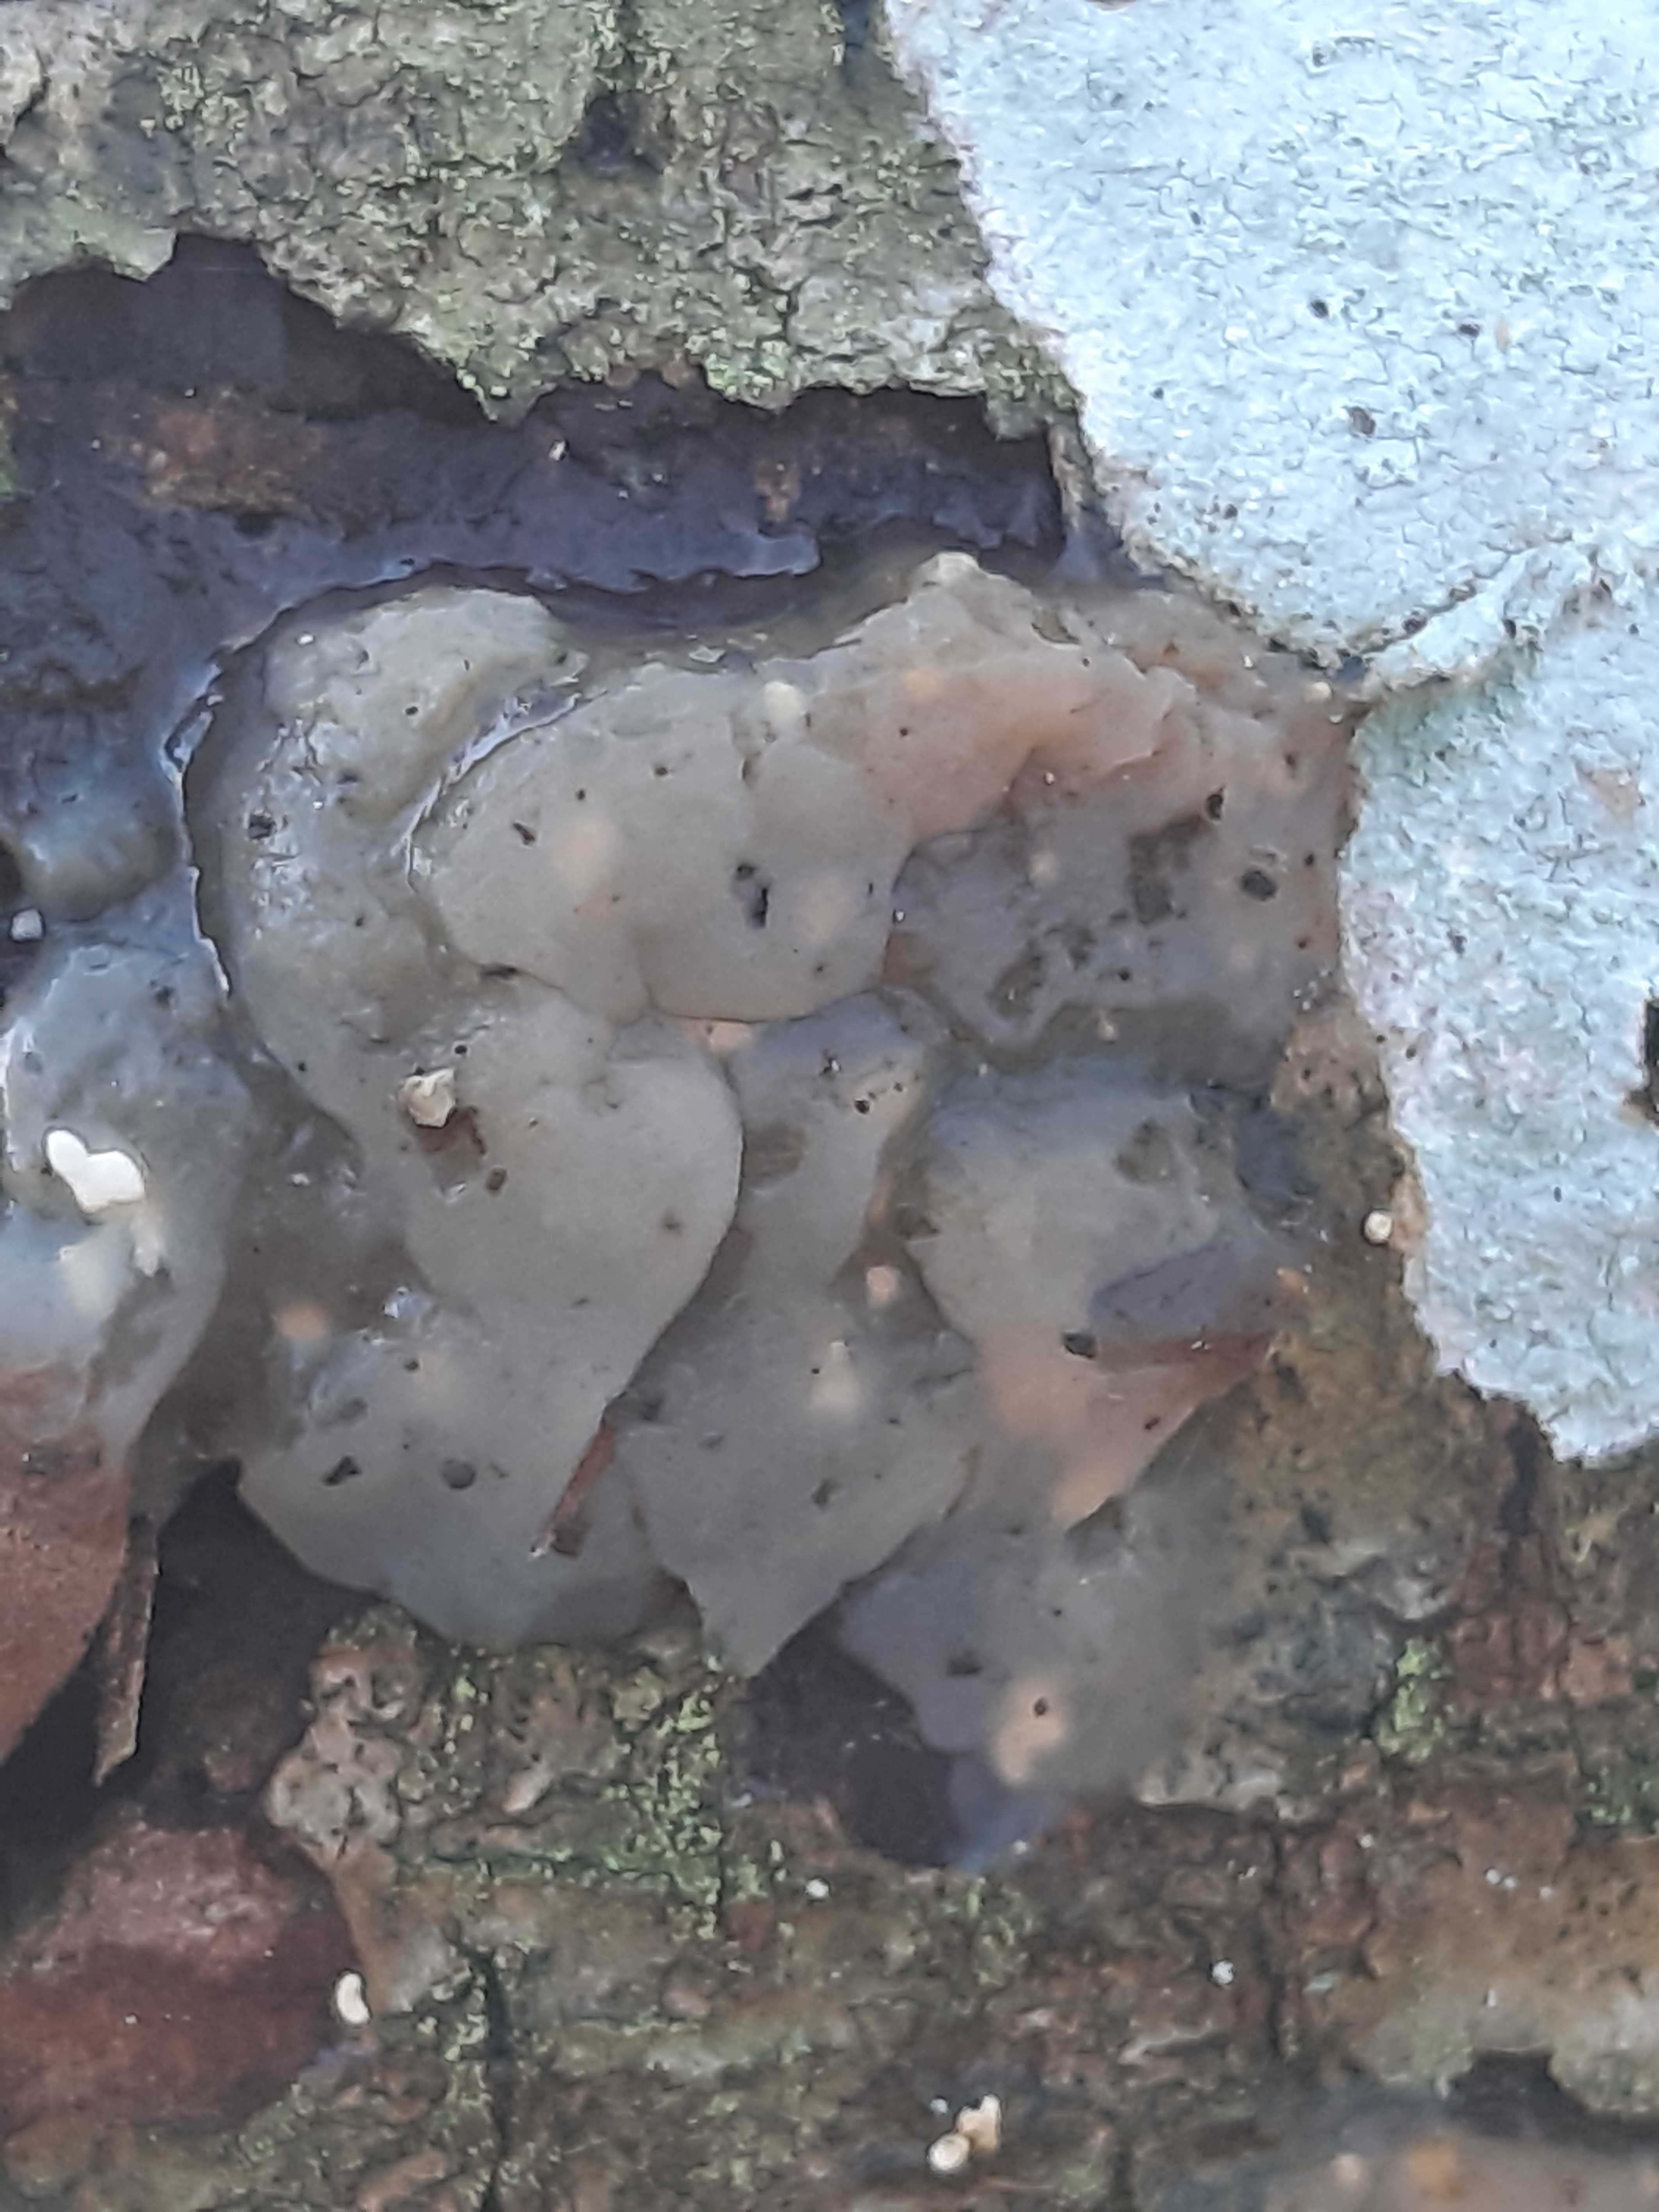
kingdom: Fungi
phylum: Basidiomycota
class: Agaricomycetes
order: Auriculariales
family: Hyaloriaceae
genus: Myxarium
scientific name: Myxarium nucleatum
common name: klar bævretop
